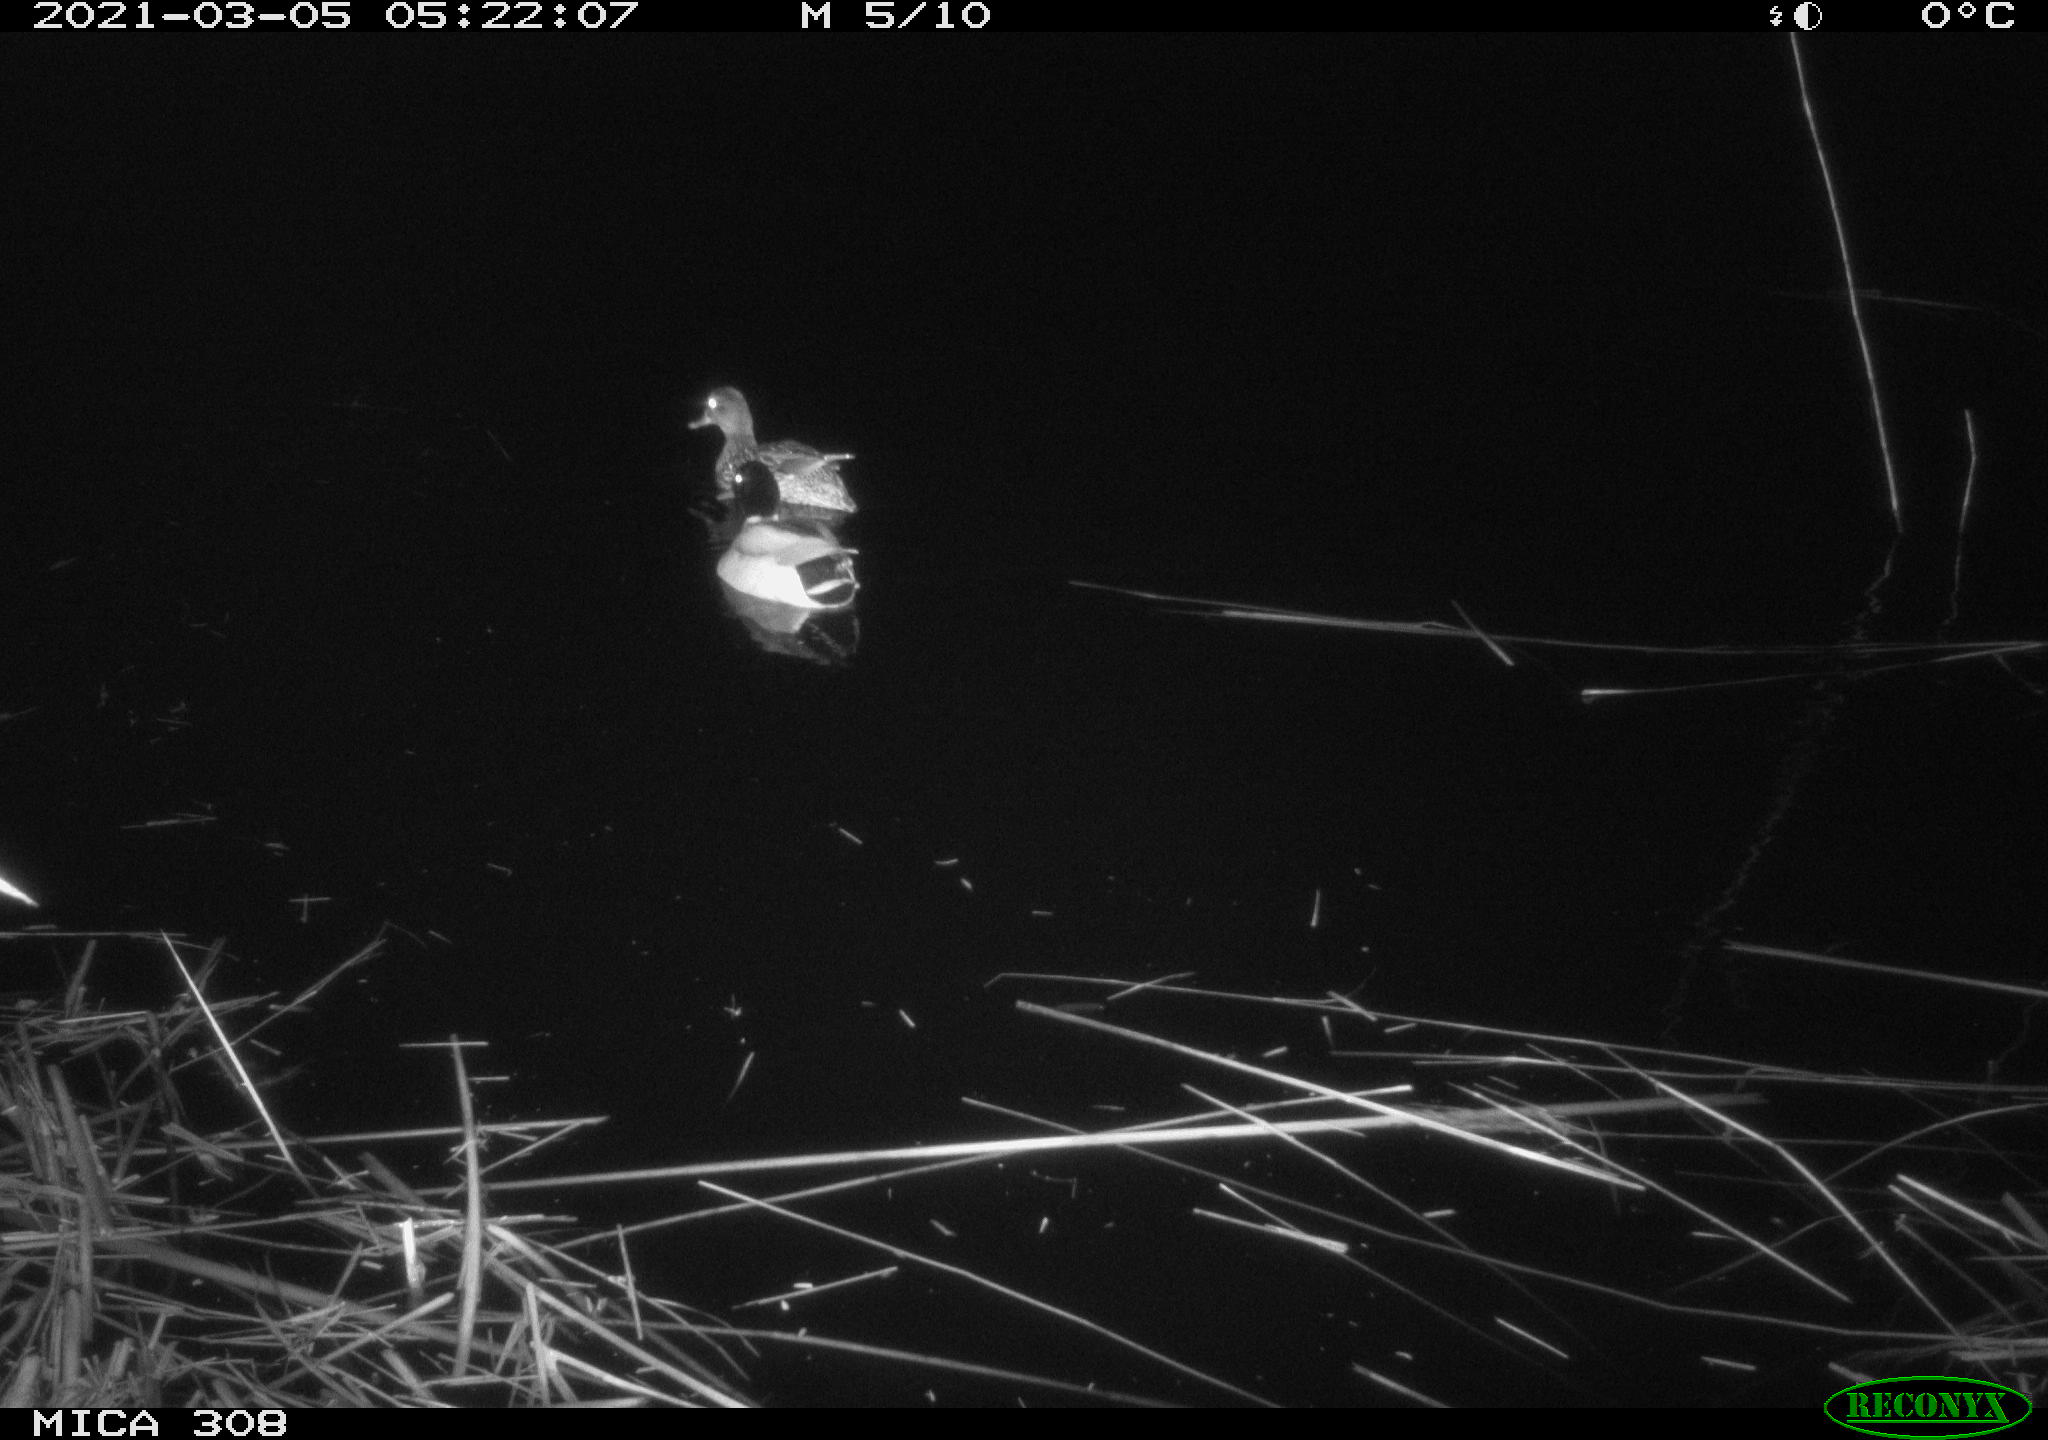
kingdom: Animalia
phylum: Chordata
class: Aves
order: Anseriformes
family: Anatidae
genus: Anas
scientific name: Anas platyrhynchos
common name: Mallard
